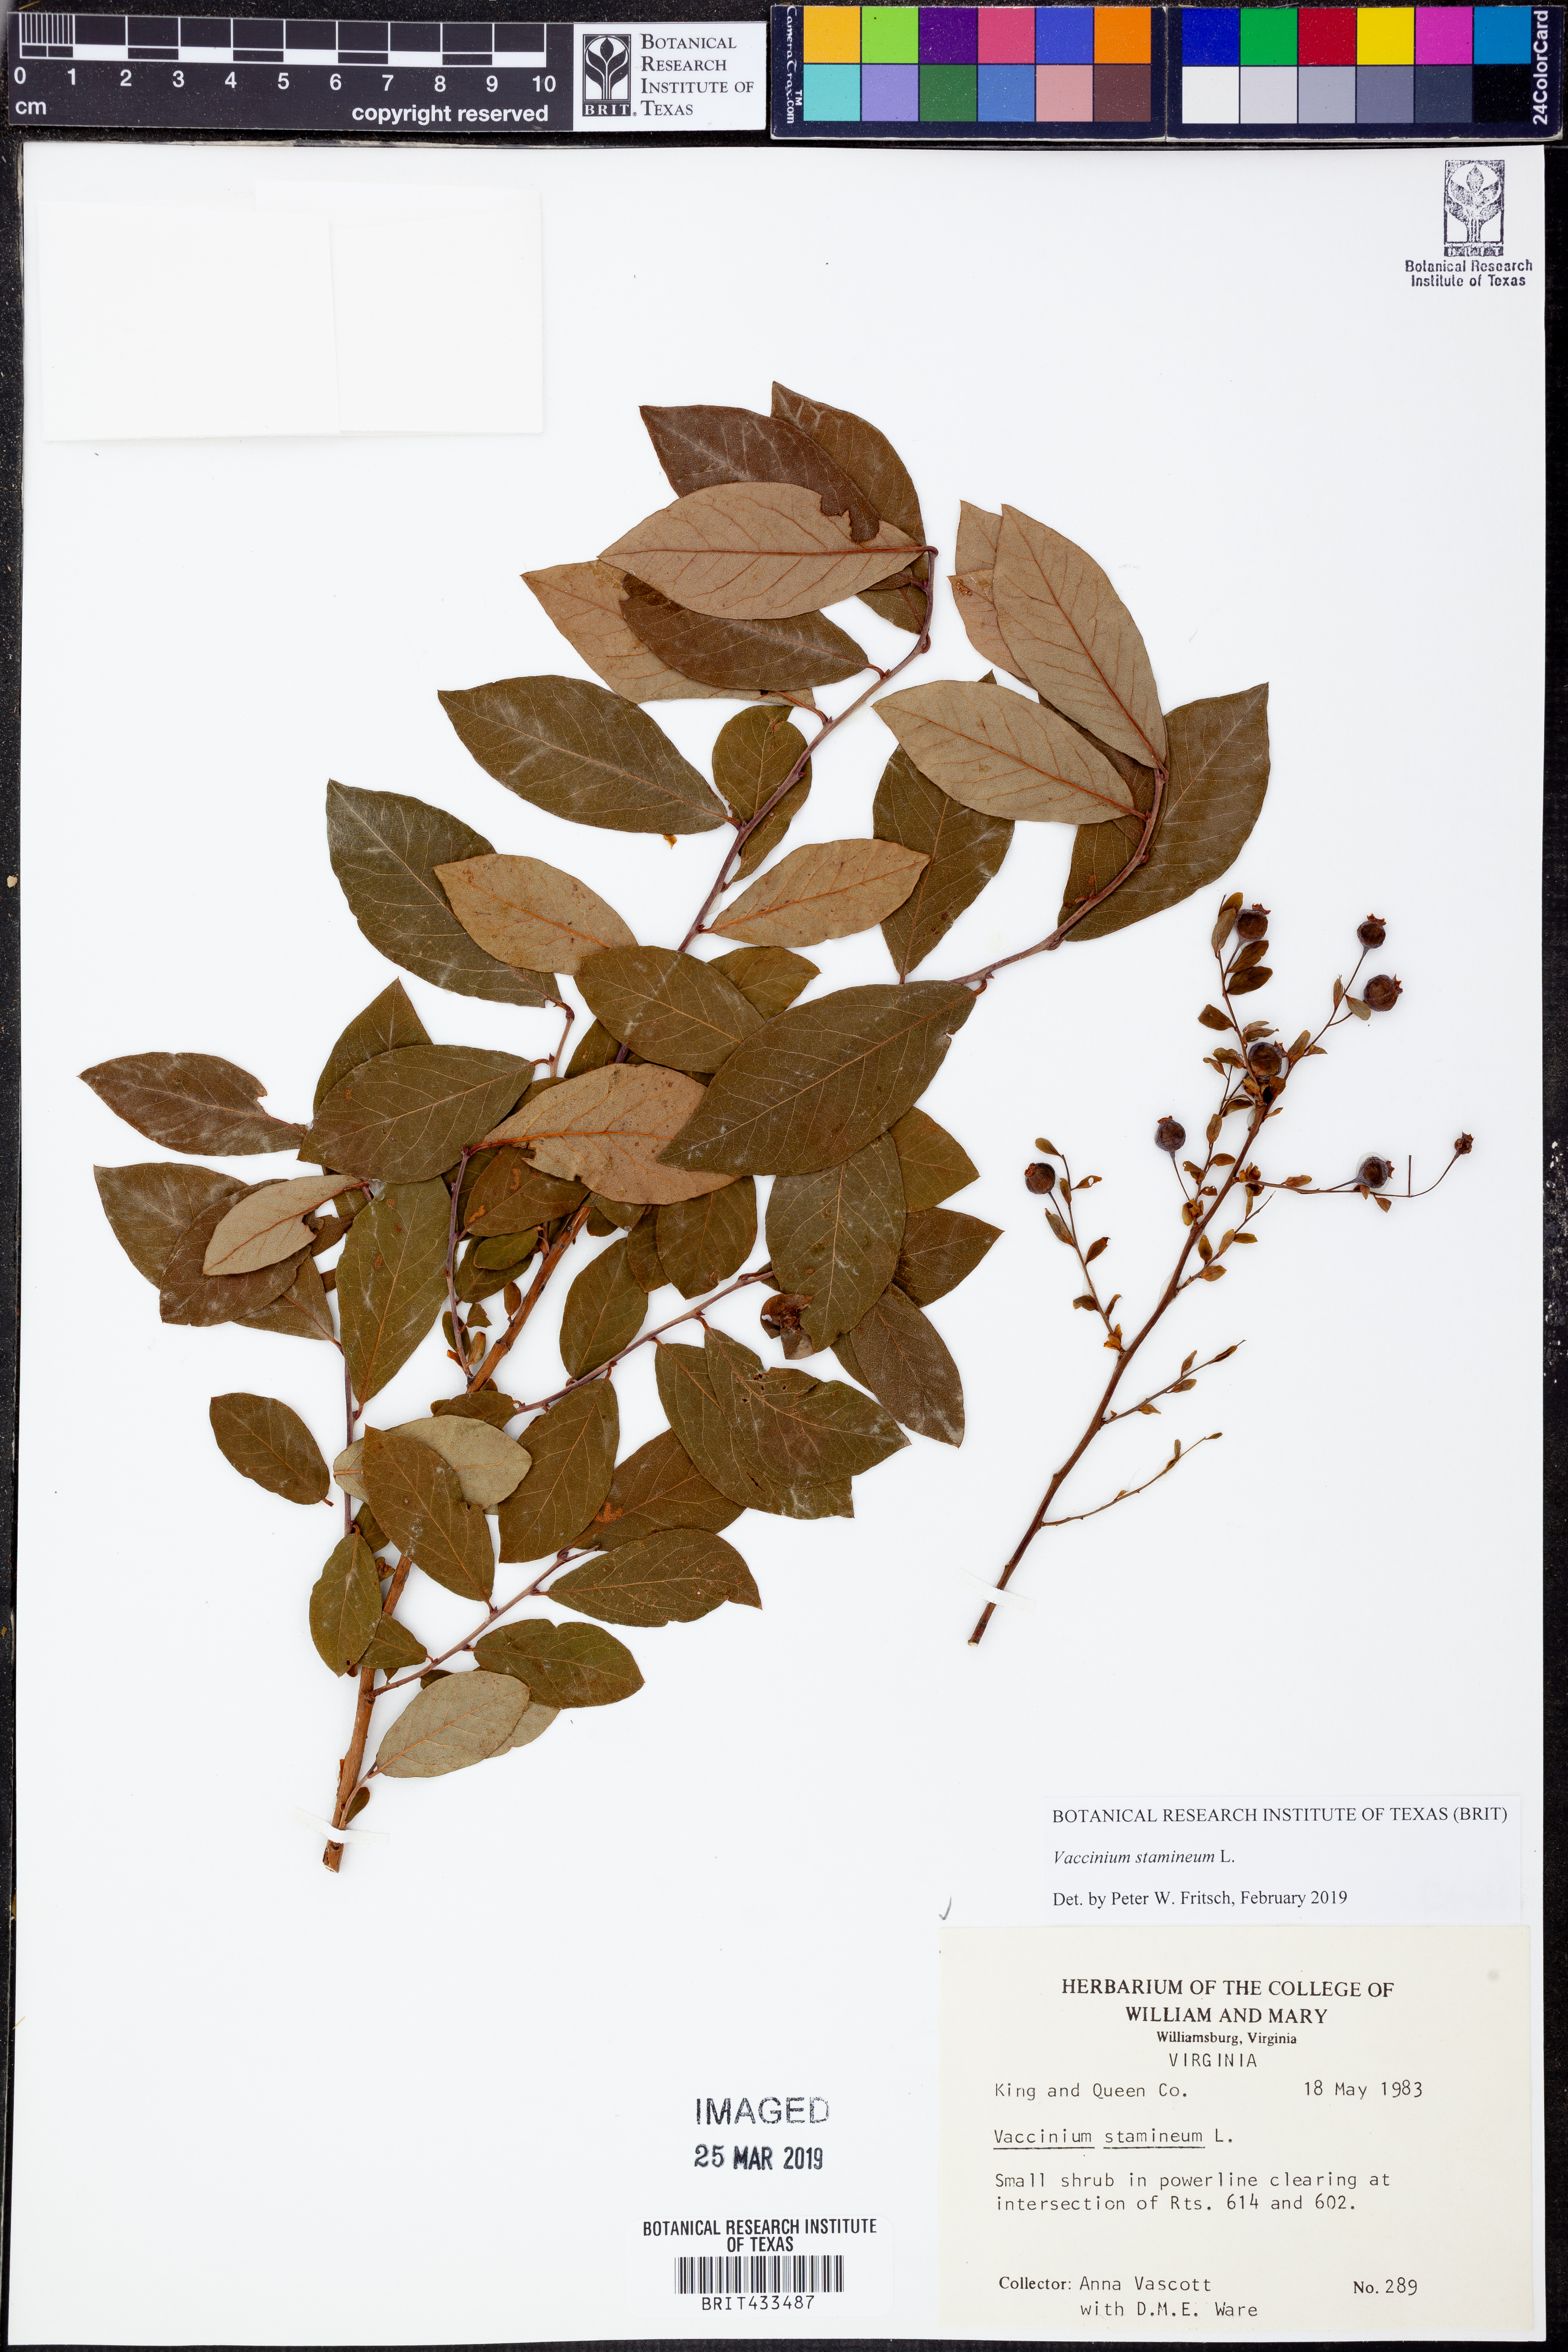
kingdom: Plantae
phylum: Tracheophyta
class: Magnoliopsida
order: Ericales
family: Ericaceae
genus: Vaccinium
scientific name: Vaccinium stamineum
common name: Deerberry
